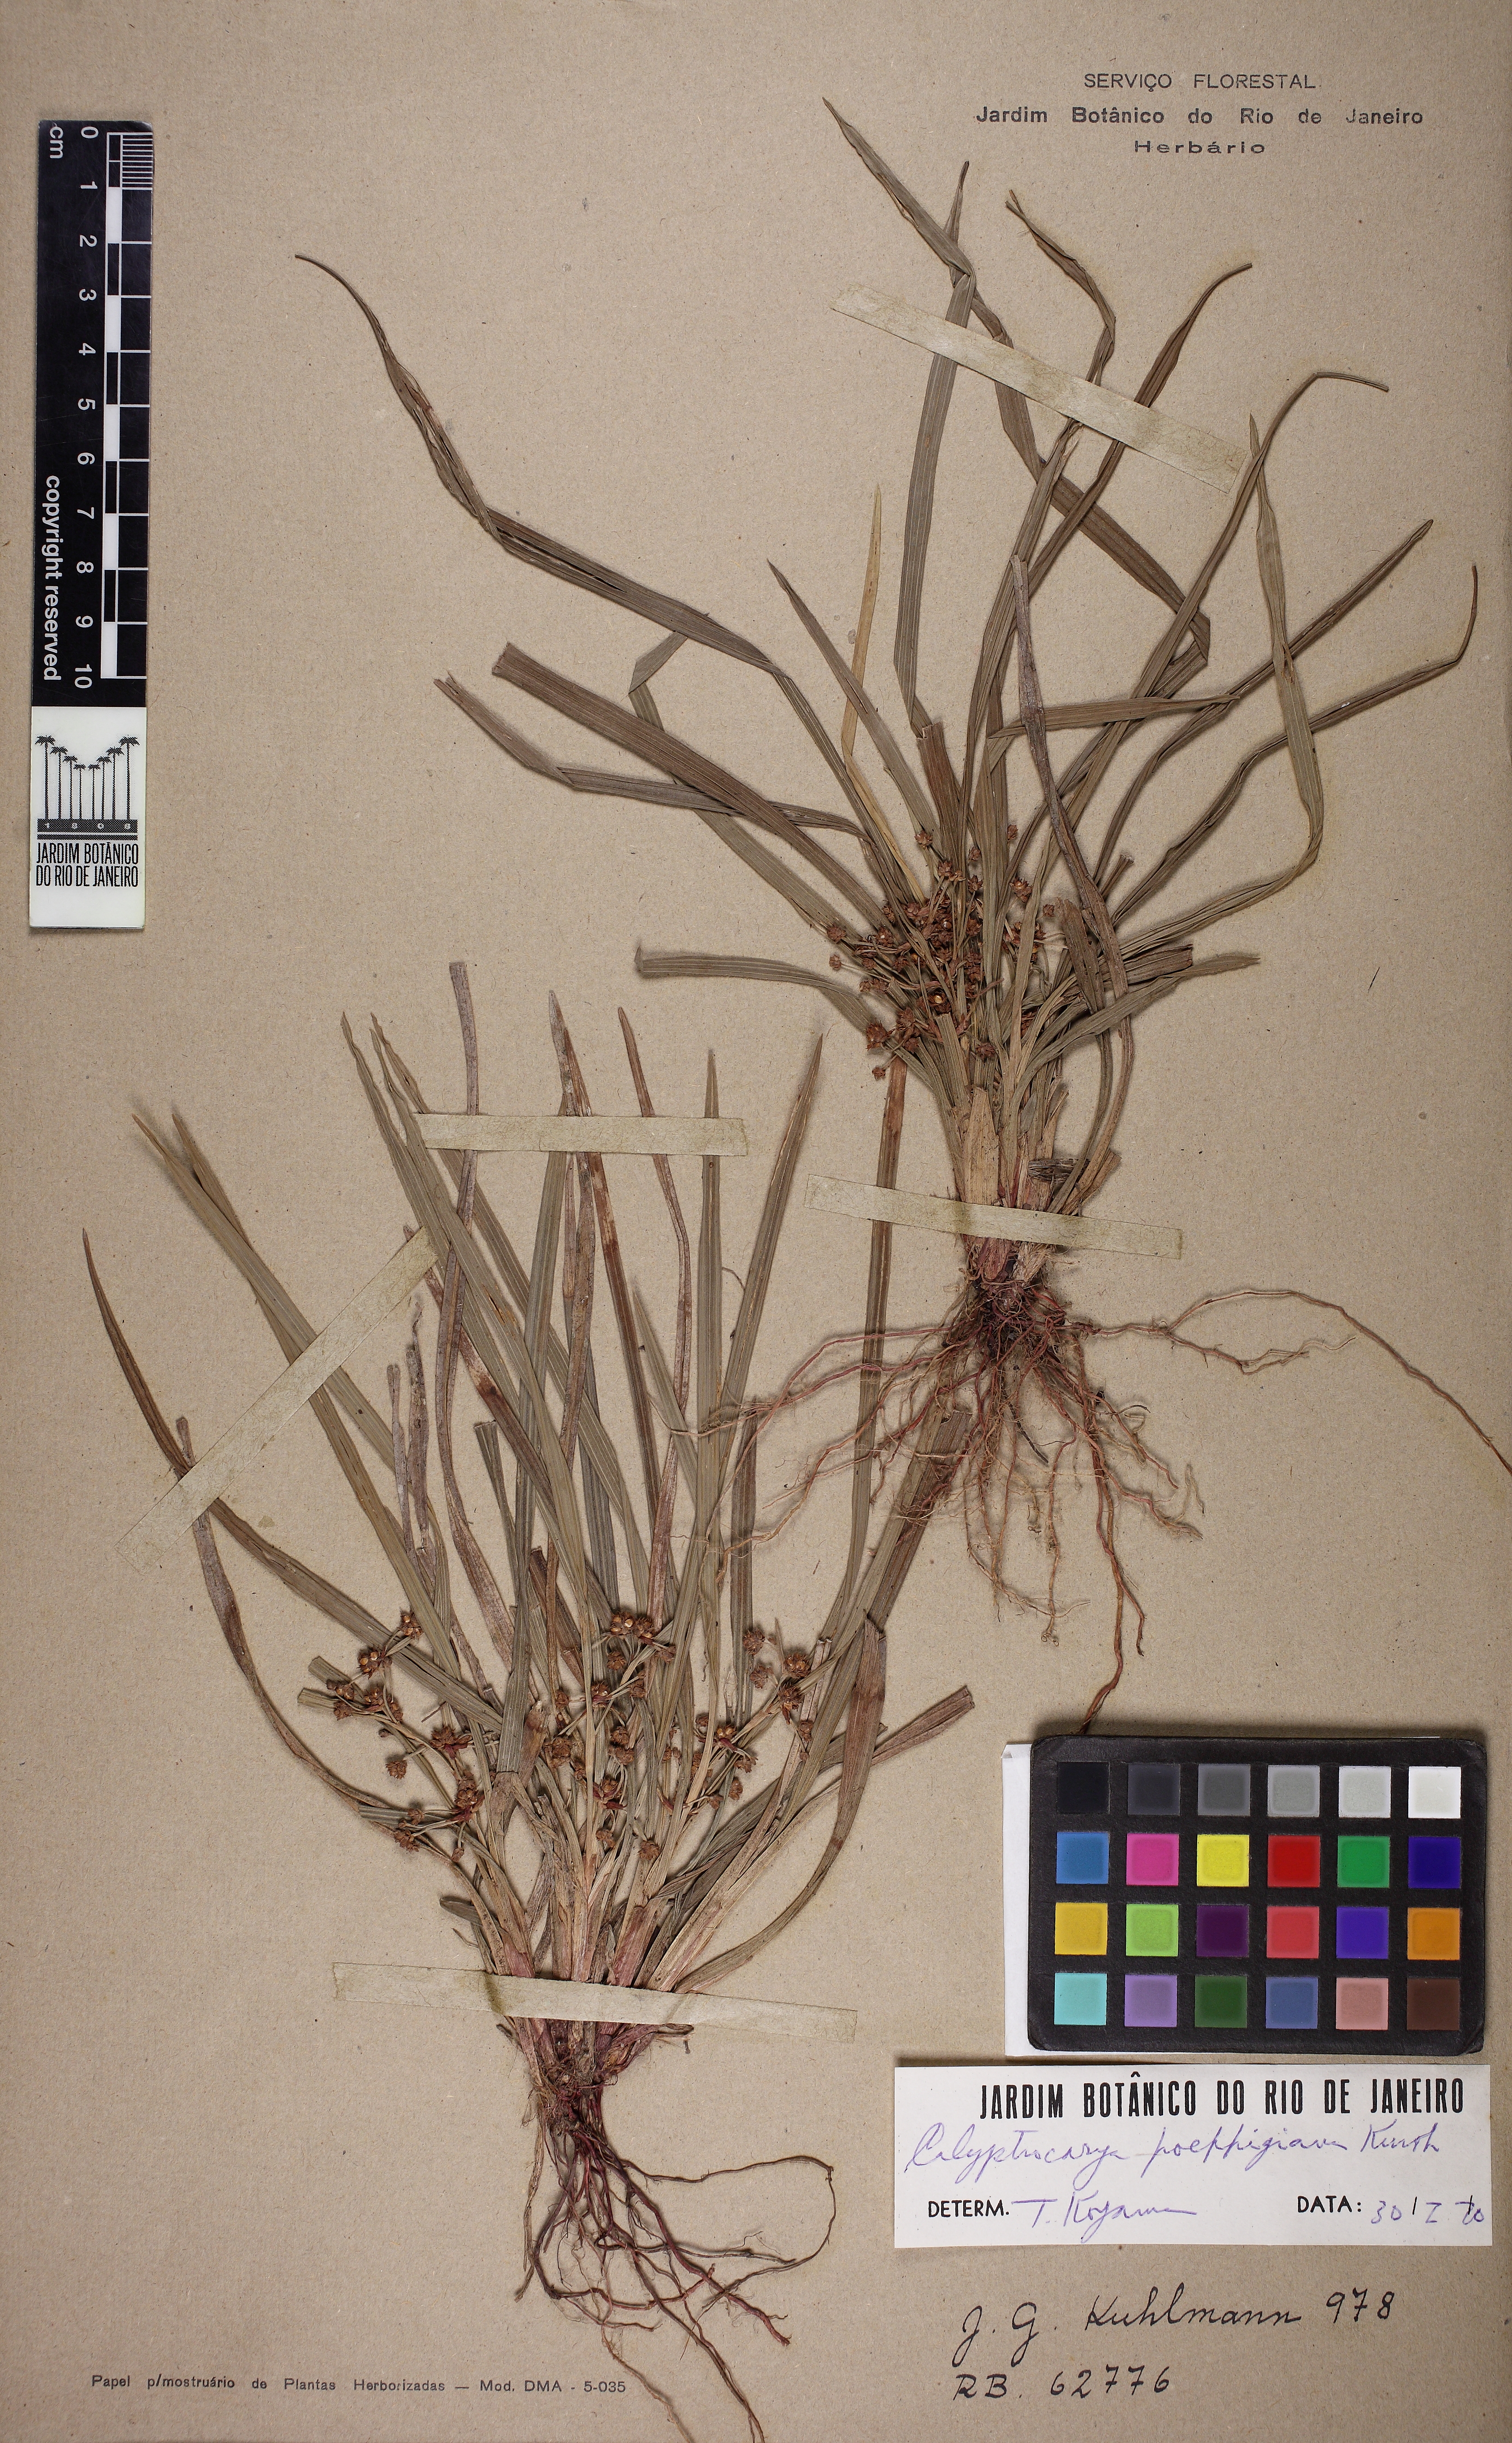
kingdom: Plantae
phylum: Tracheophyta
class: Liliopsida
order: Poales
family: Cyperaceae
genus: Calyptrocarya
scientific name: Calyptrocarya glomerulata
